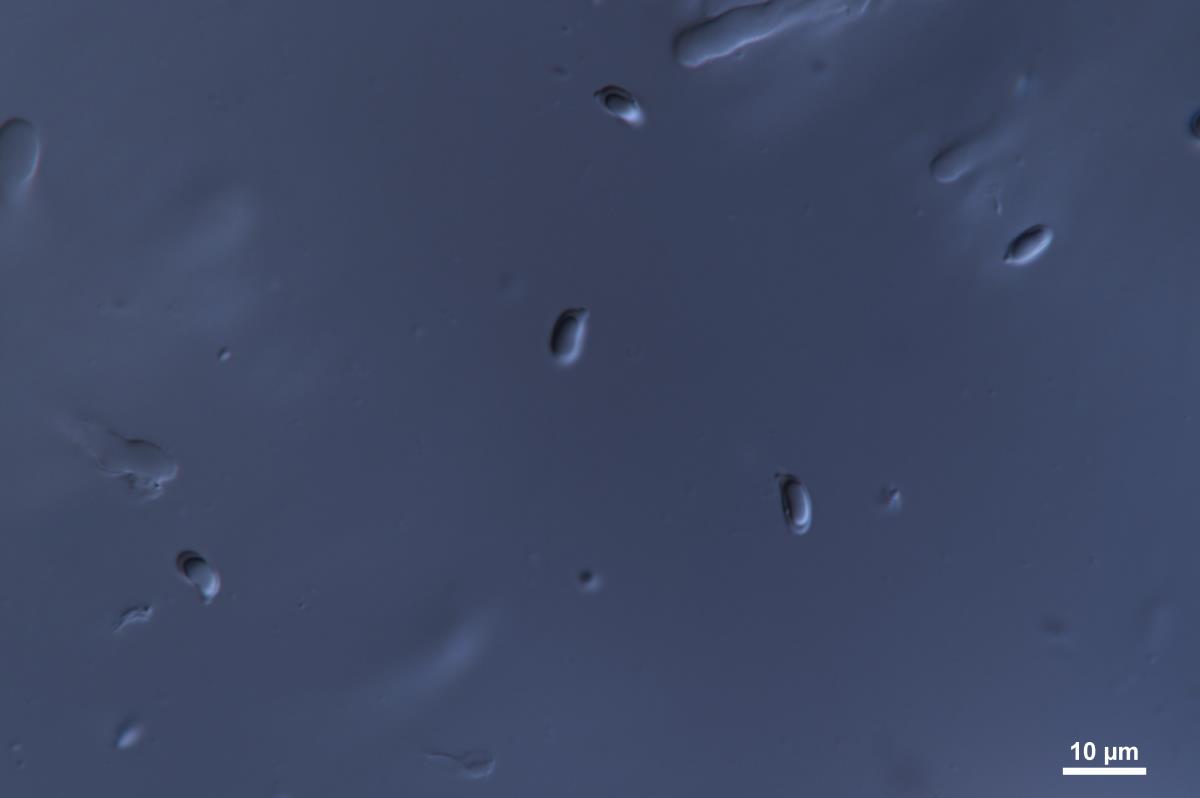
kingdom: Fungi
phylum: Basidiomycota
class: Agaricomycetes
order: Agaricales
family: Clavariaceae
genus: Clavaria
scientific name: Clavaria fragilis
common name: White spindles
